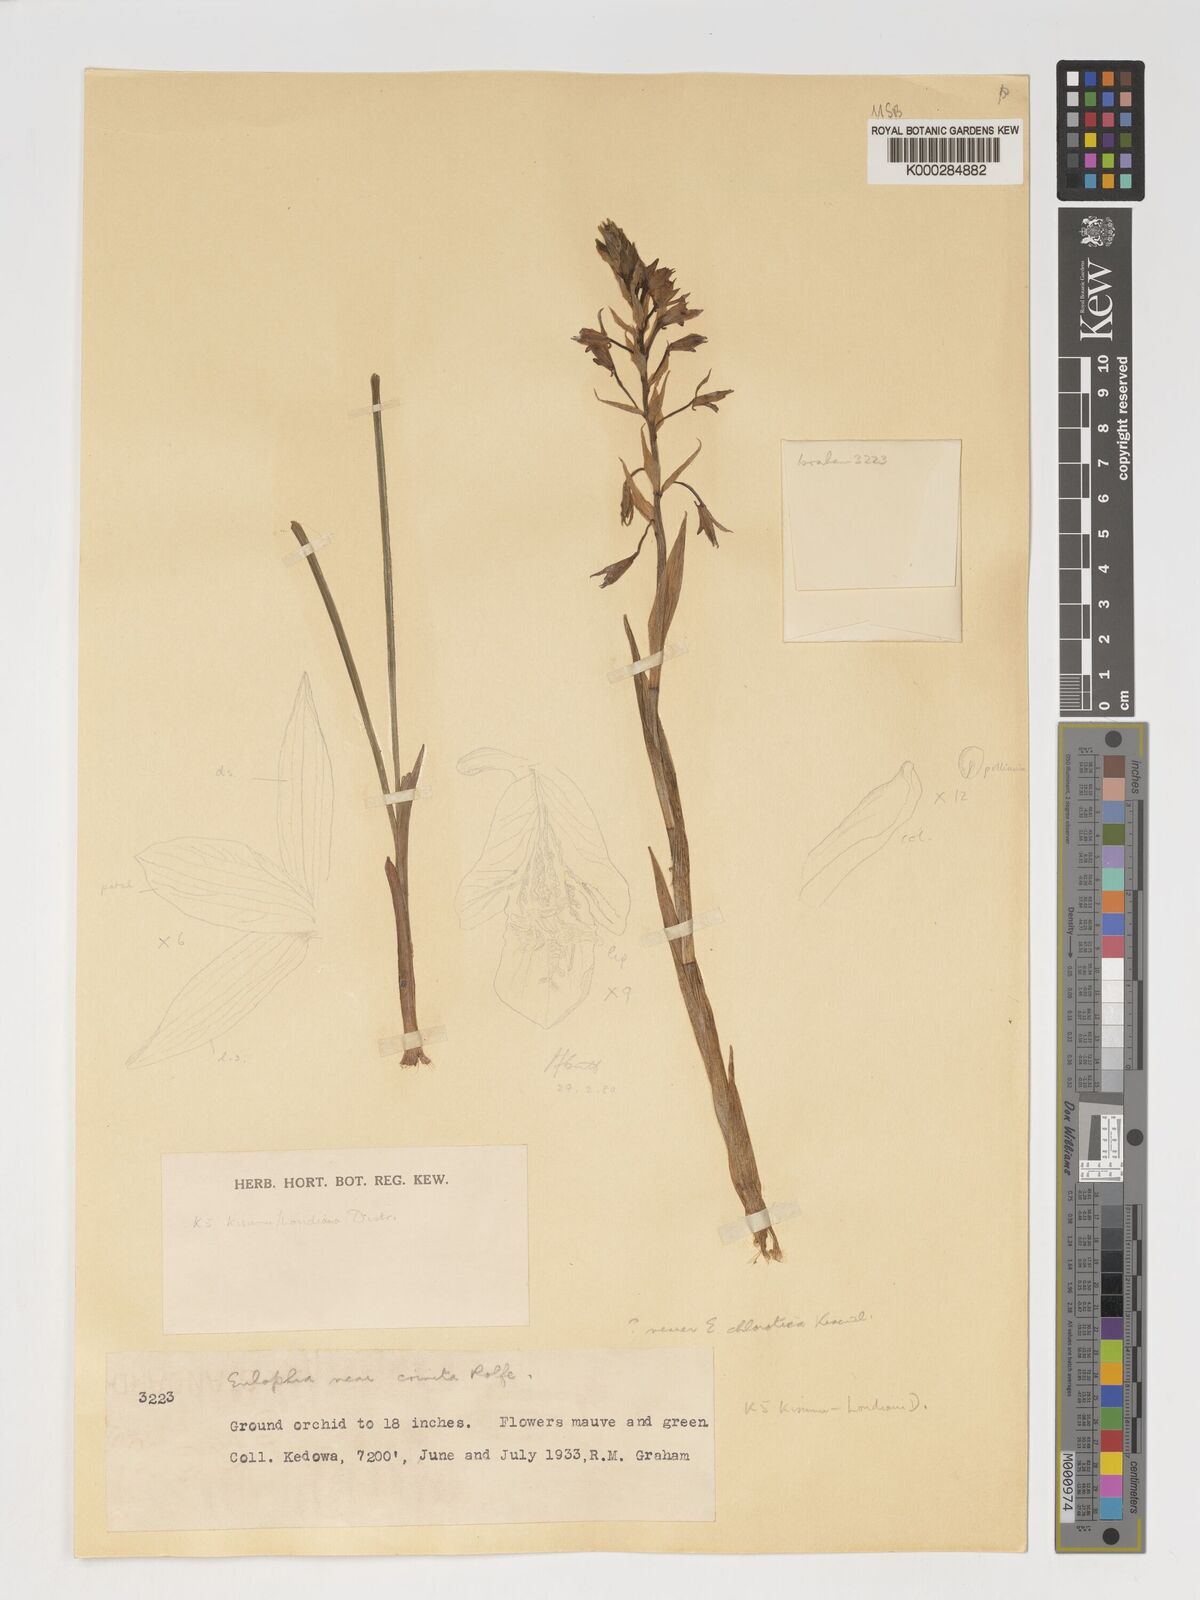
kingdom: Plantae
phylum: Tracheophyta
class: Liliopsida
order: Asparagales
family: Orchidaceae
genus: Eulophia
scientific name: Eulophia hians
